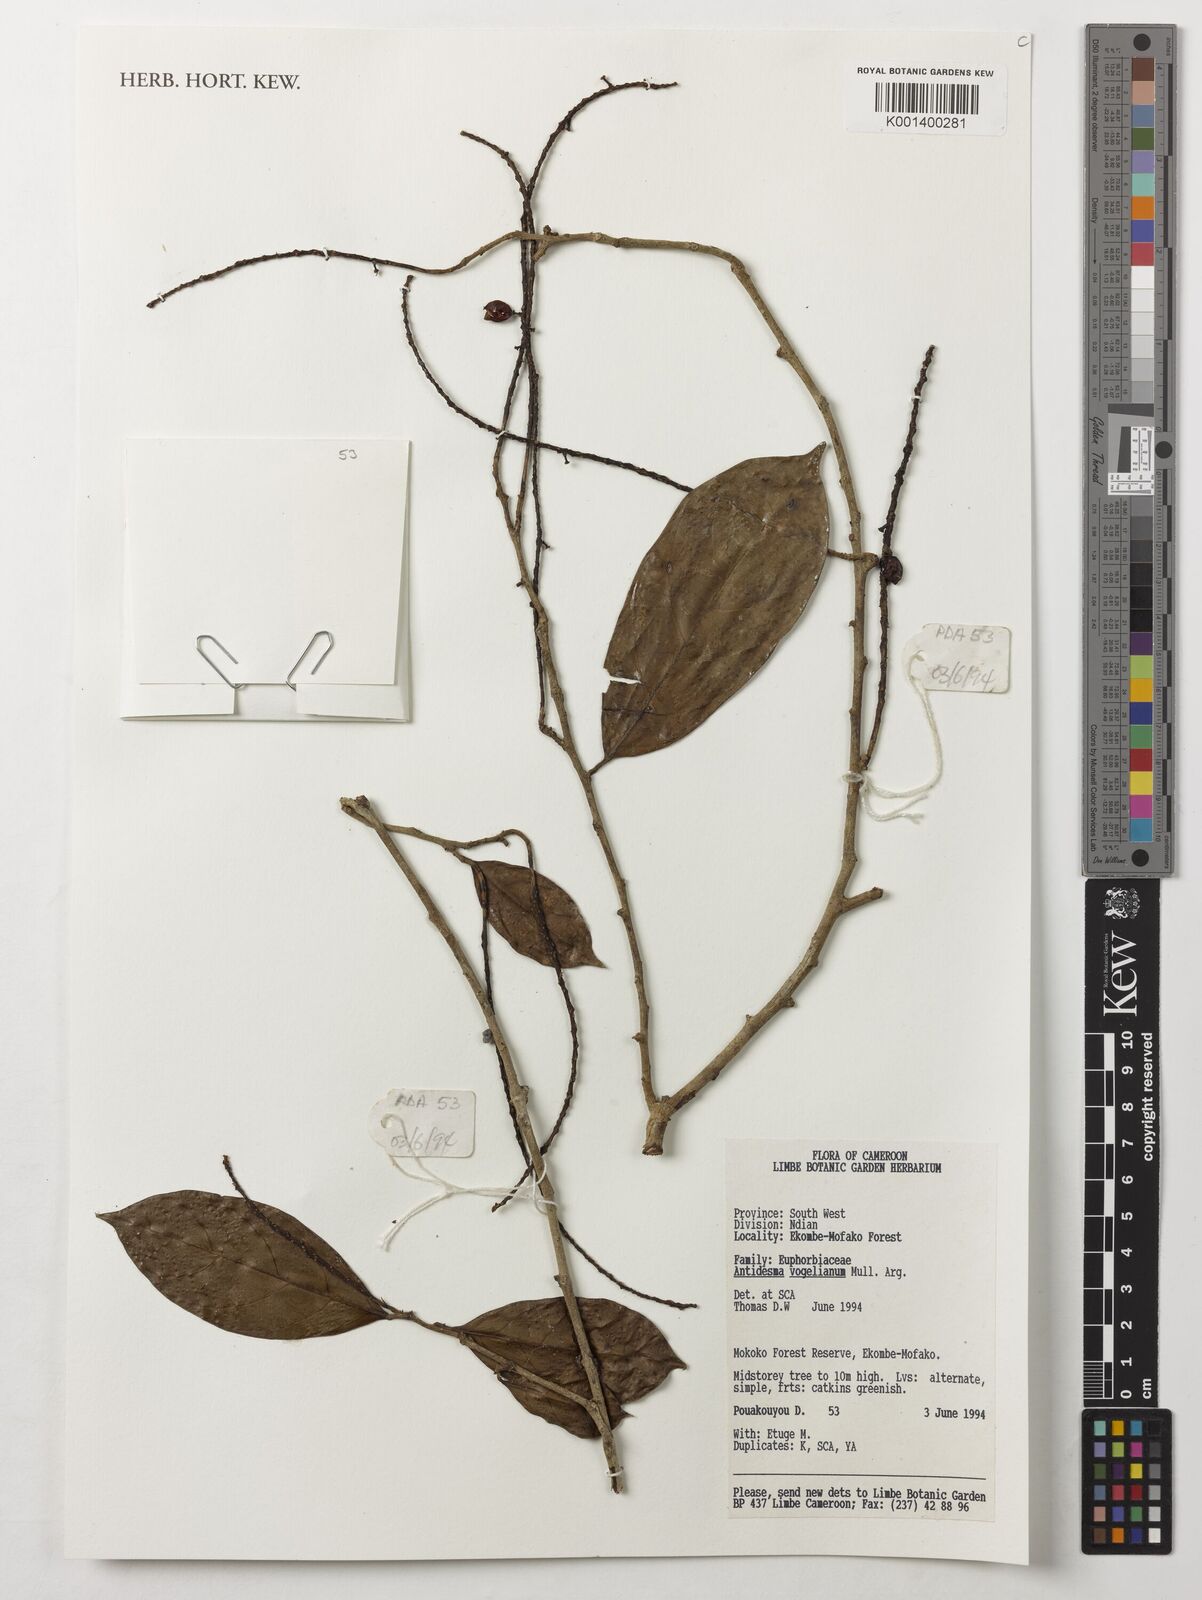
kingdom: Plantae
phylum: Tracheophyta
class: Magnoliopsida
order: Malpighiales
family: Phyllanthaceae
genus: Antidesma
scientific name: Antidesma vogelianum
